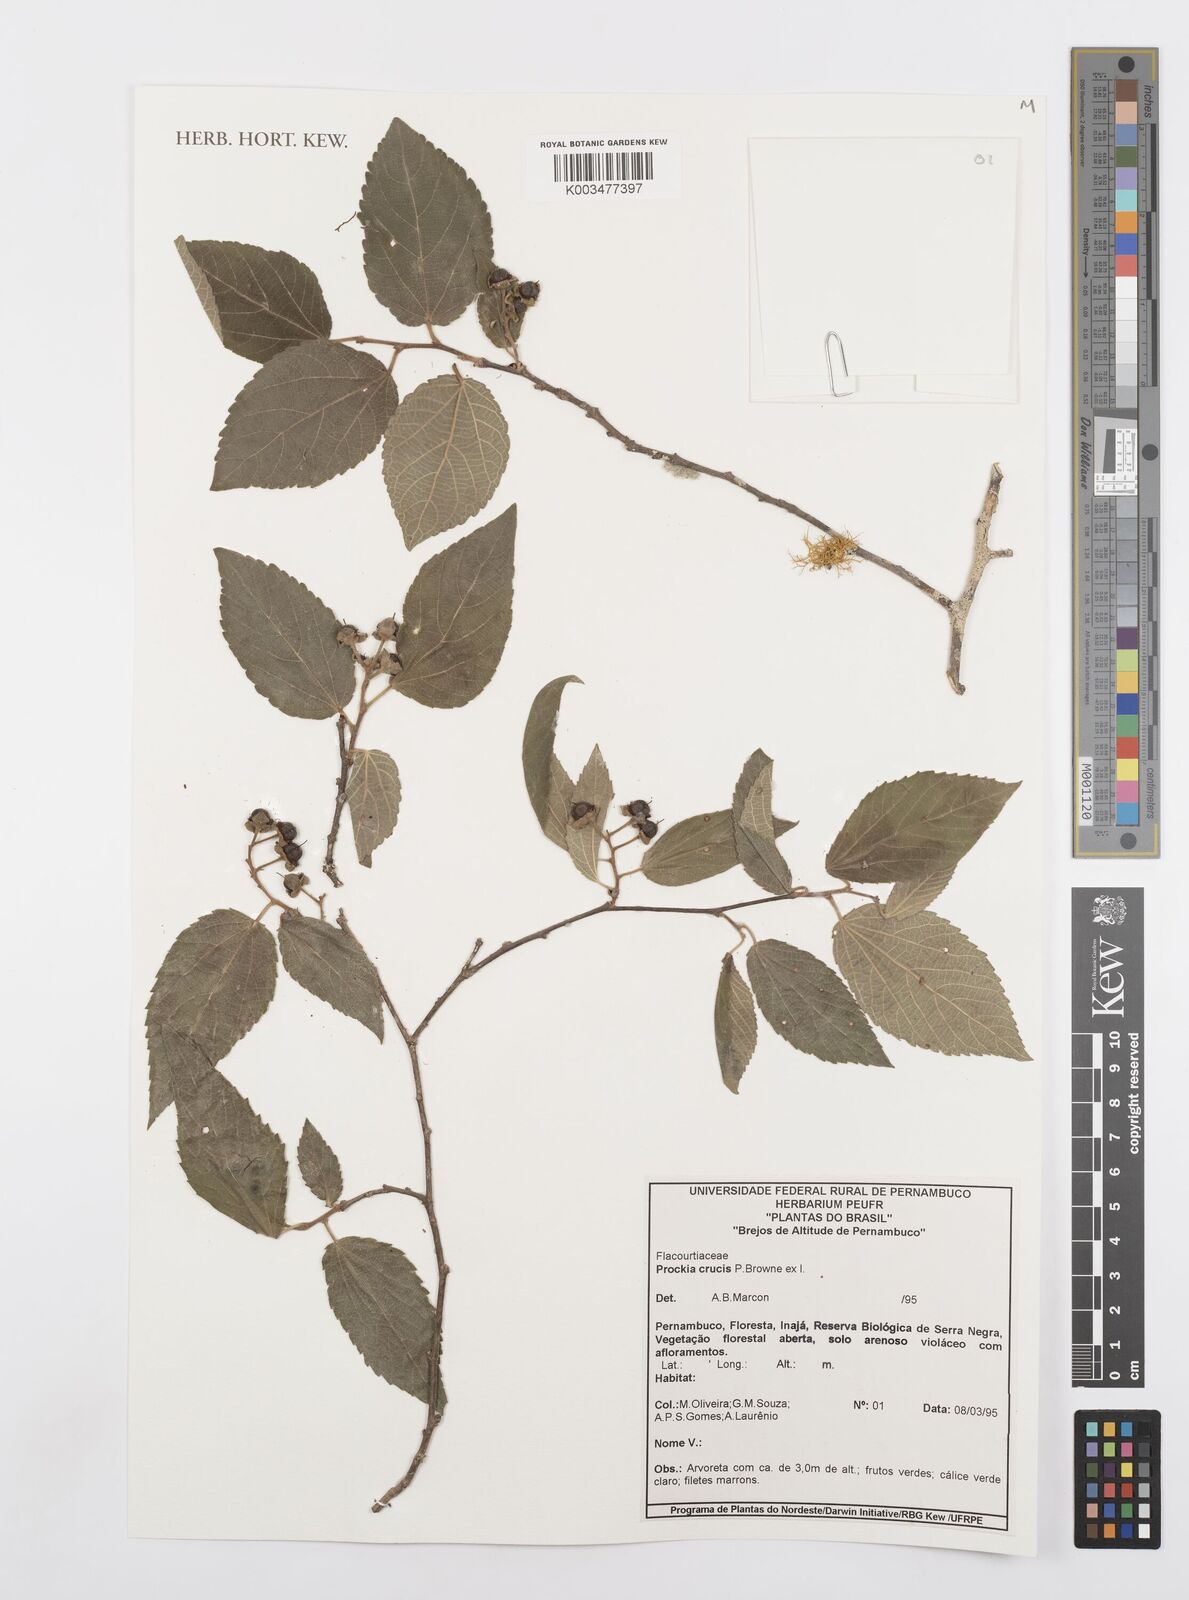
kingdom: Plantae
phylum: Tracheophyta
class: Magnoliopsida
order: Malpighiales
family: Salicaceae
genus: Prockia
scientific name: Prockia crucis
